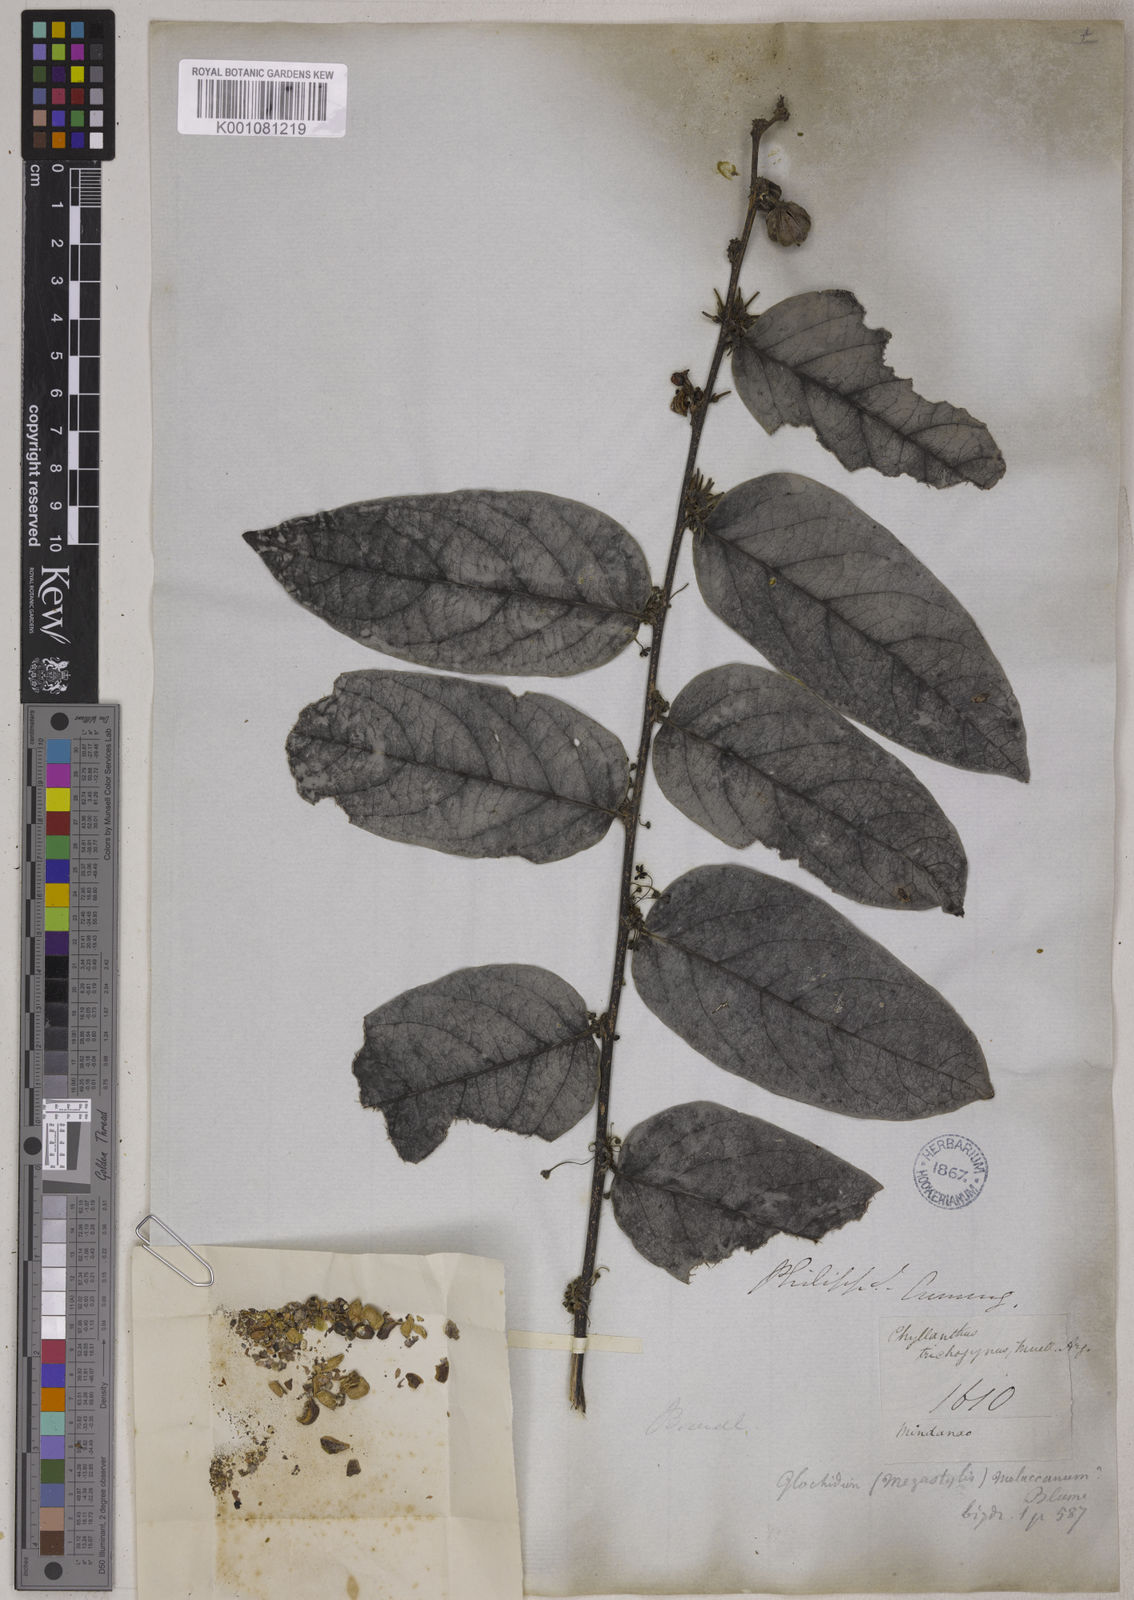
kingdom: Plantae
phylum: Tracheophyta
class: Magnoliopsida
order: Malpighiales
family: Phyllanthaceae
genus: Glochidion
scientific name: Glochidion
